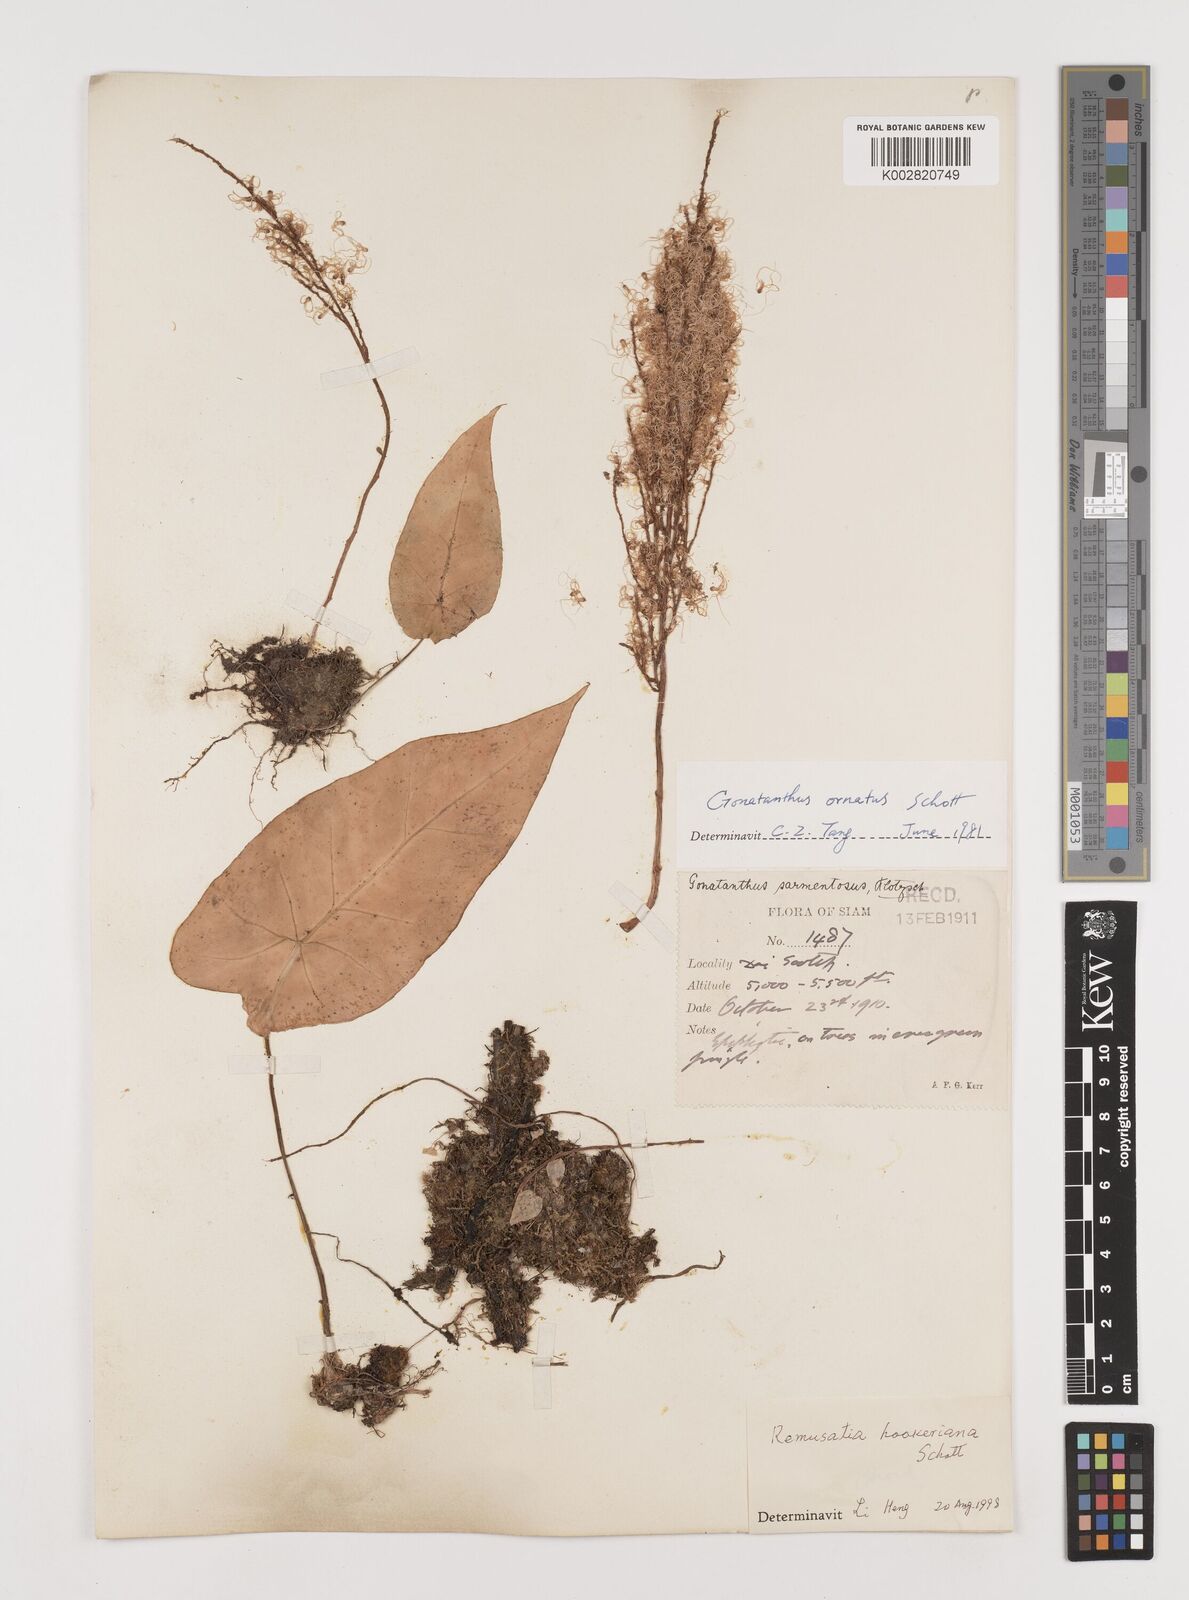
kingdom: Plantae
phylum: Tracheophyta
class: Liliopsida
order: Alismatales
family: Araceae
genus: Remusatia
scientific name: Remusatia hookeriana
